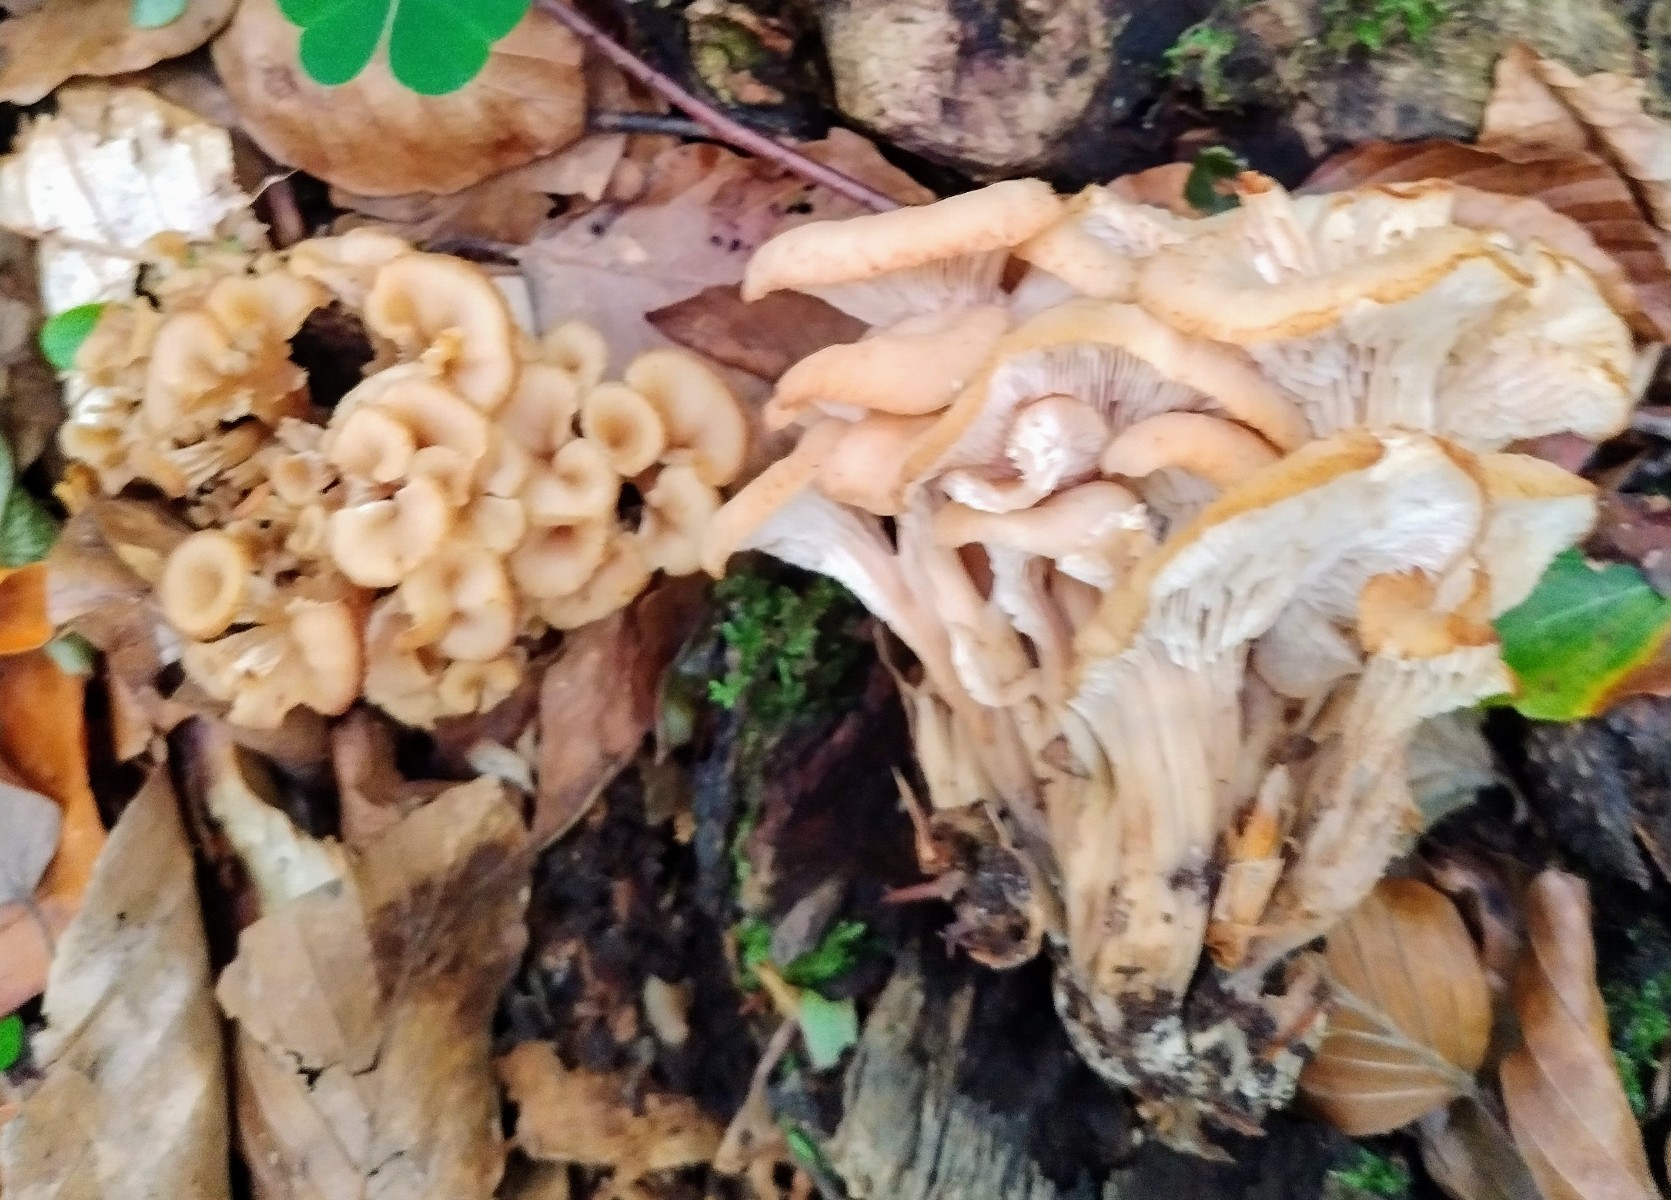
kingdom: Fungi
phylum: Basidiomycota
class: Agaricomycetes
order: Russulales
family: Auriscalpiaceae
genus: Lentinellus
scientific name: Lentinellus cochleatus
